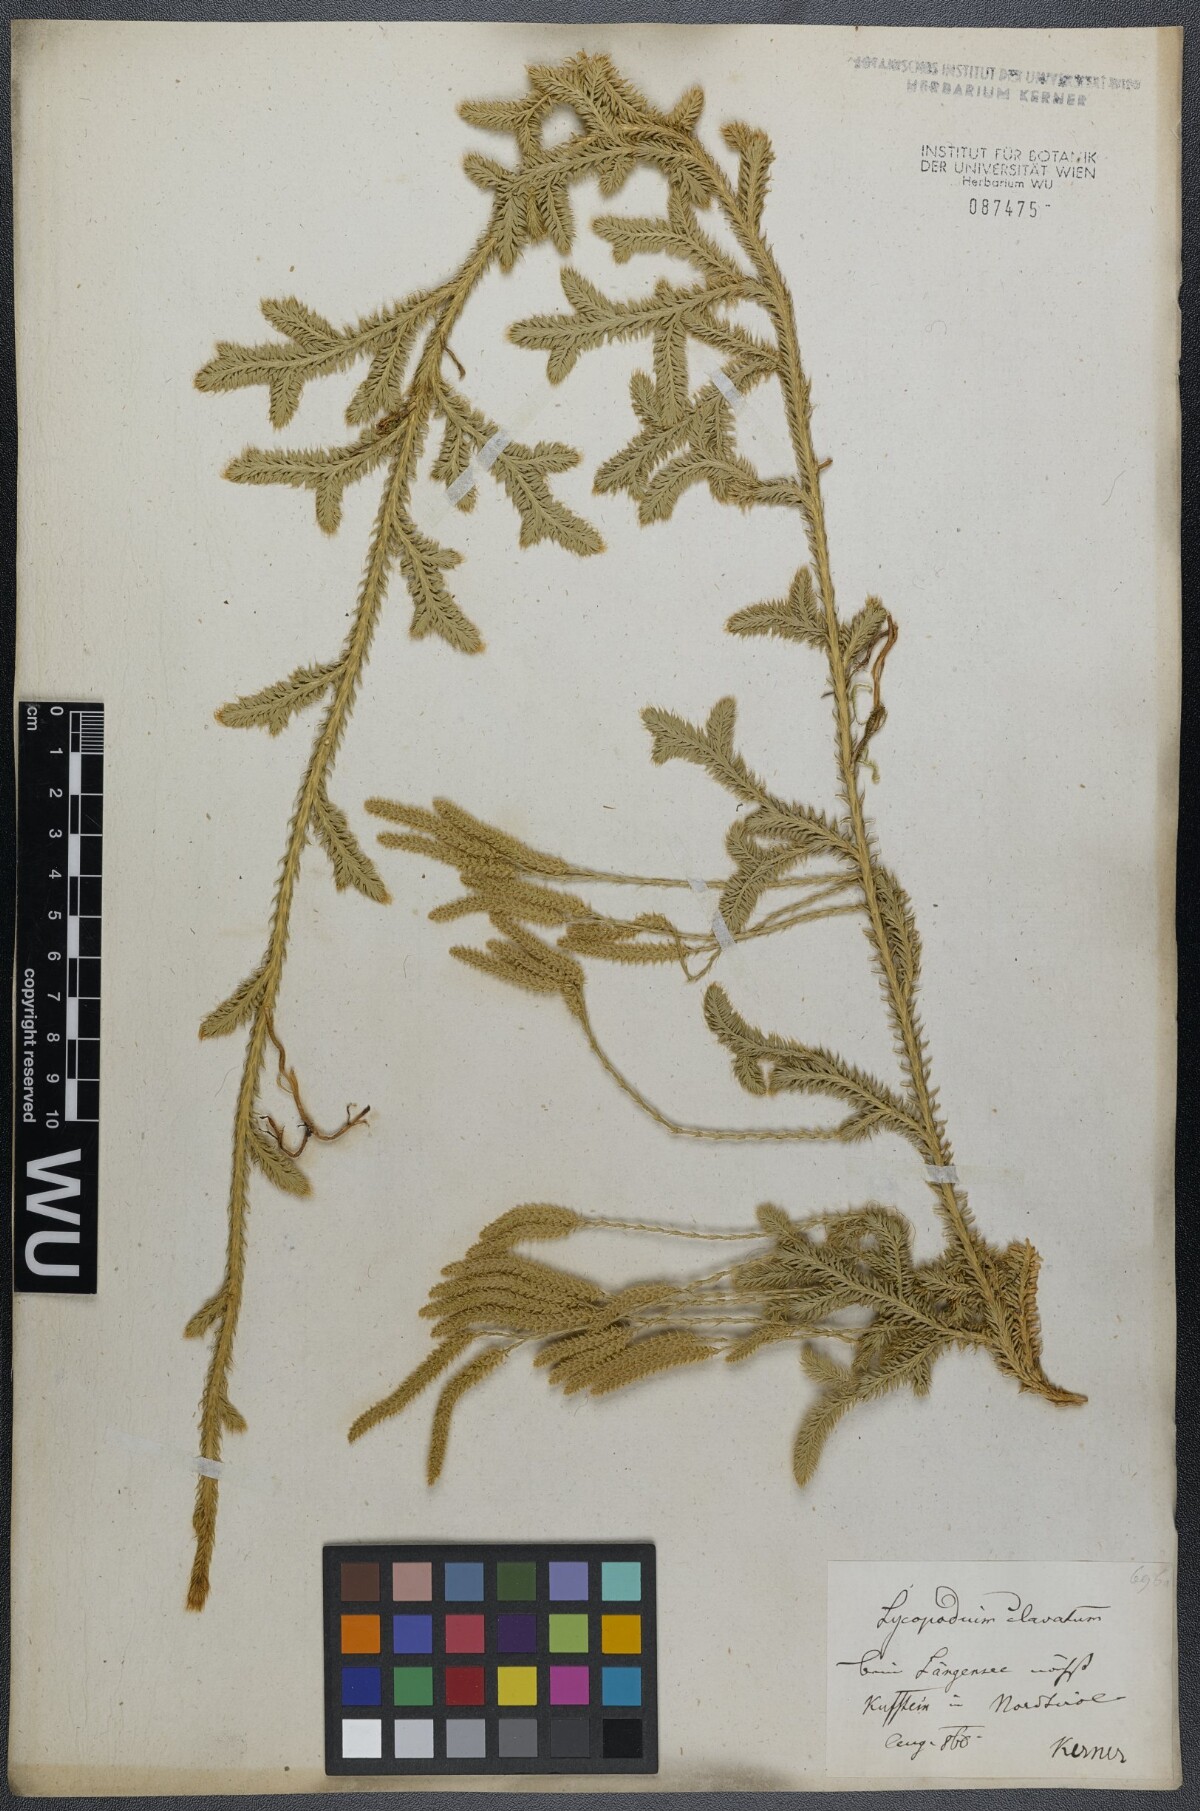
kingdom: Plantae
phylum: Tracheophyta
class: Lycopodiopsida
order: Lycopodiales
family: Lycopodiaceae
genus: Lycopodium
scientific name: Lycopodium clavatum
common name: Stag's-horn clubmoss
